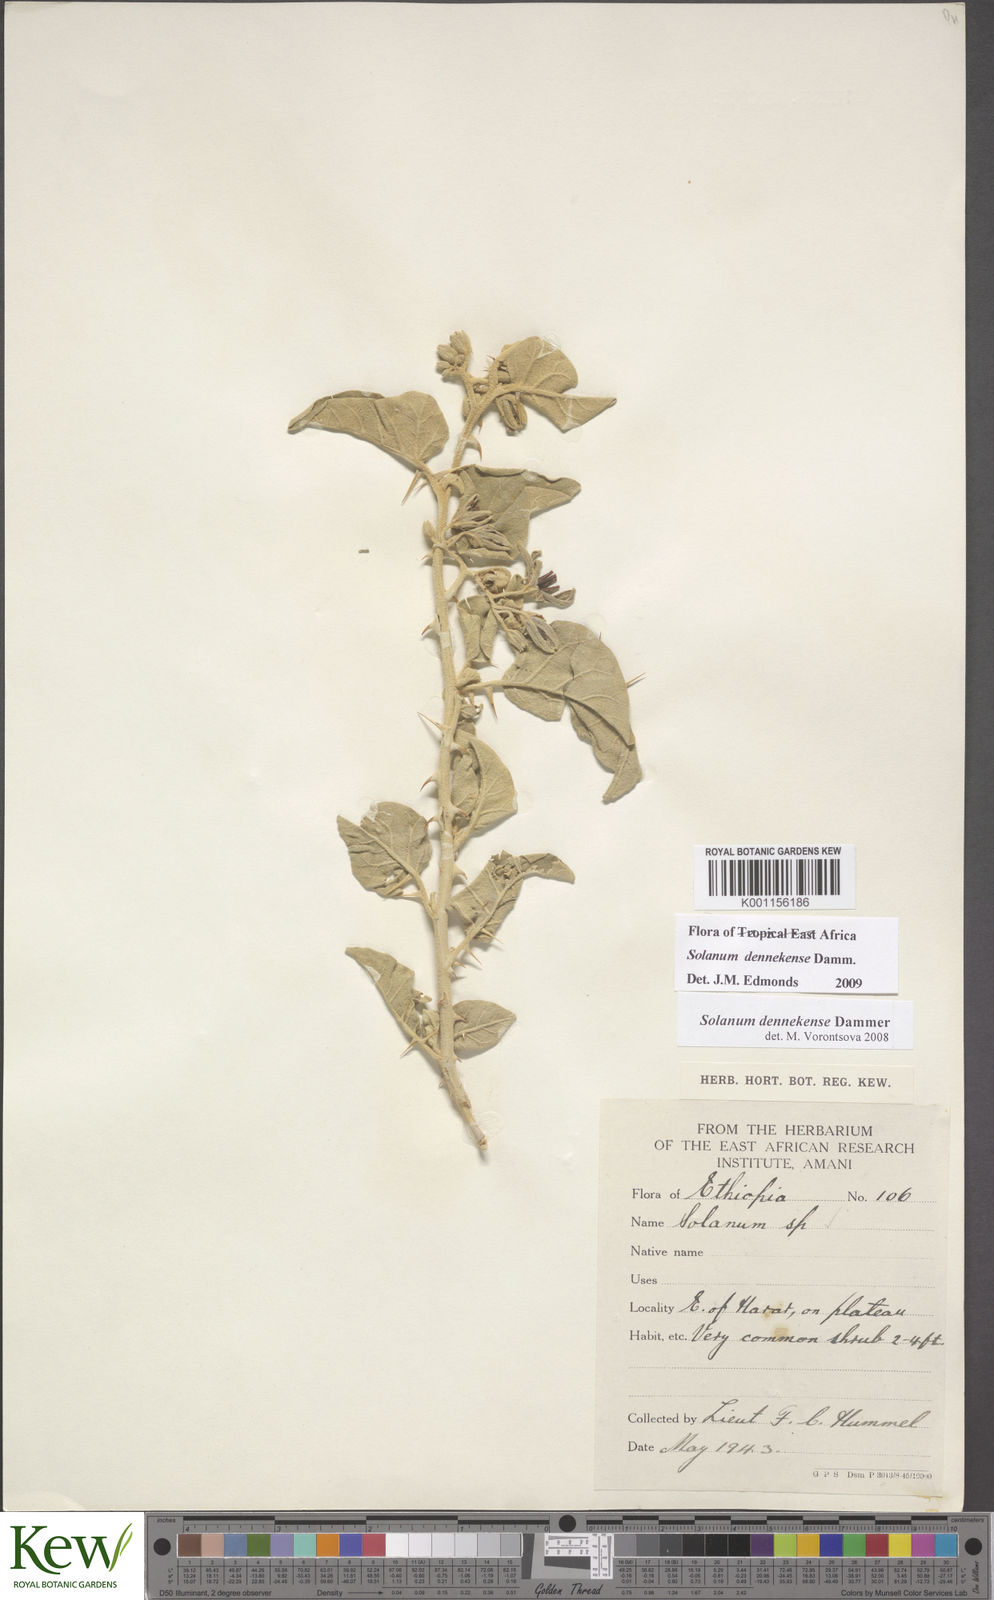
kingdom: Plantae
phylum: Tracheophyta
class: Magnoliopsida
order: Solanales
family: Solanaceae
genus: Solanum
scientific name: Solanum dennekense
